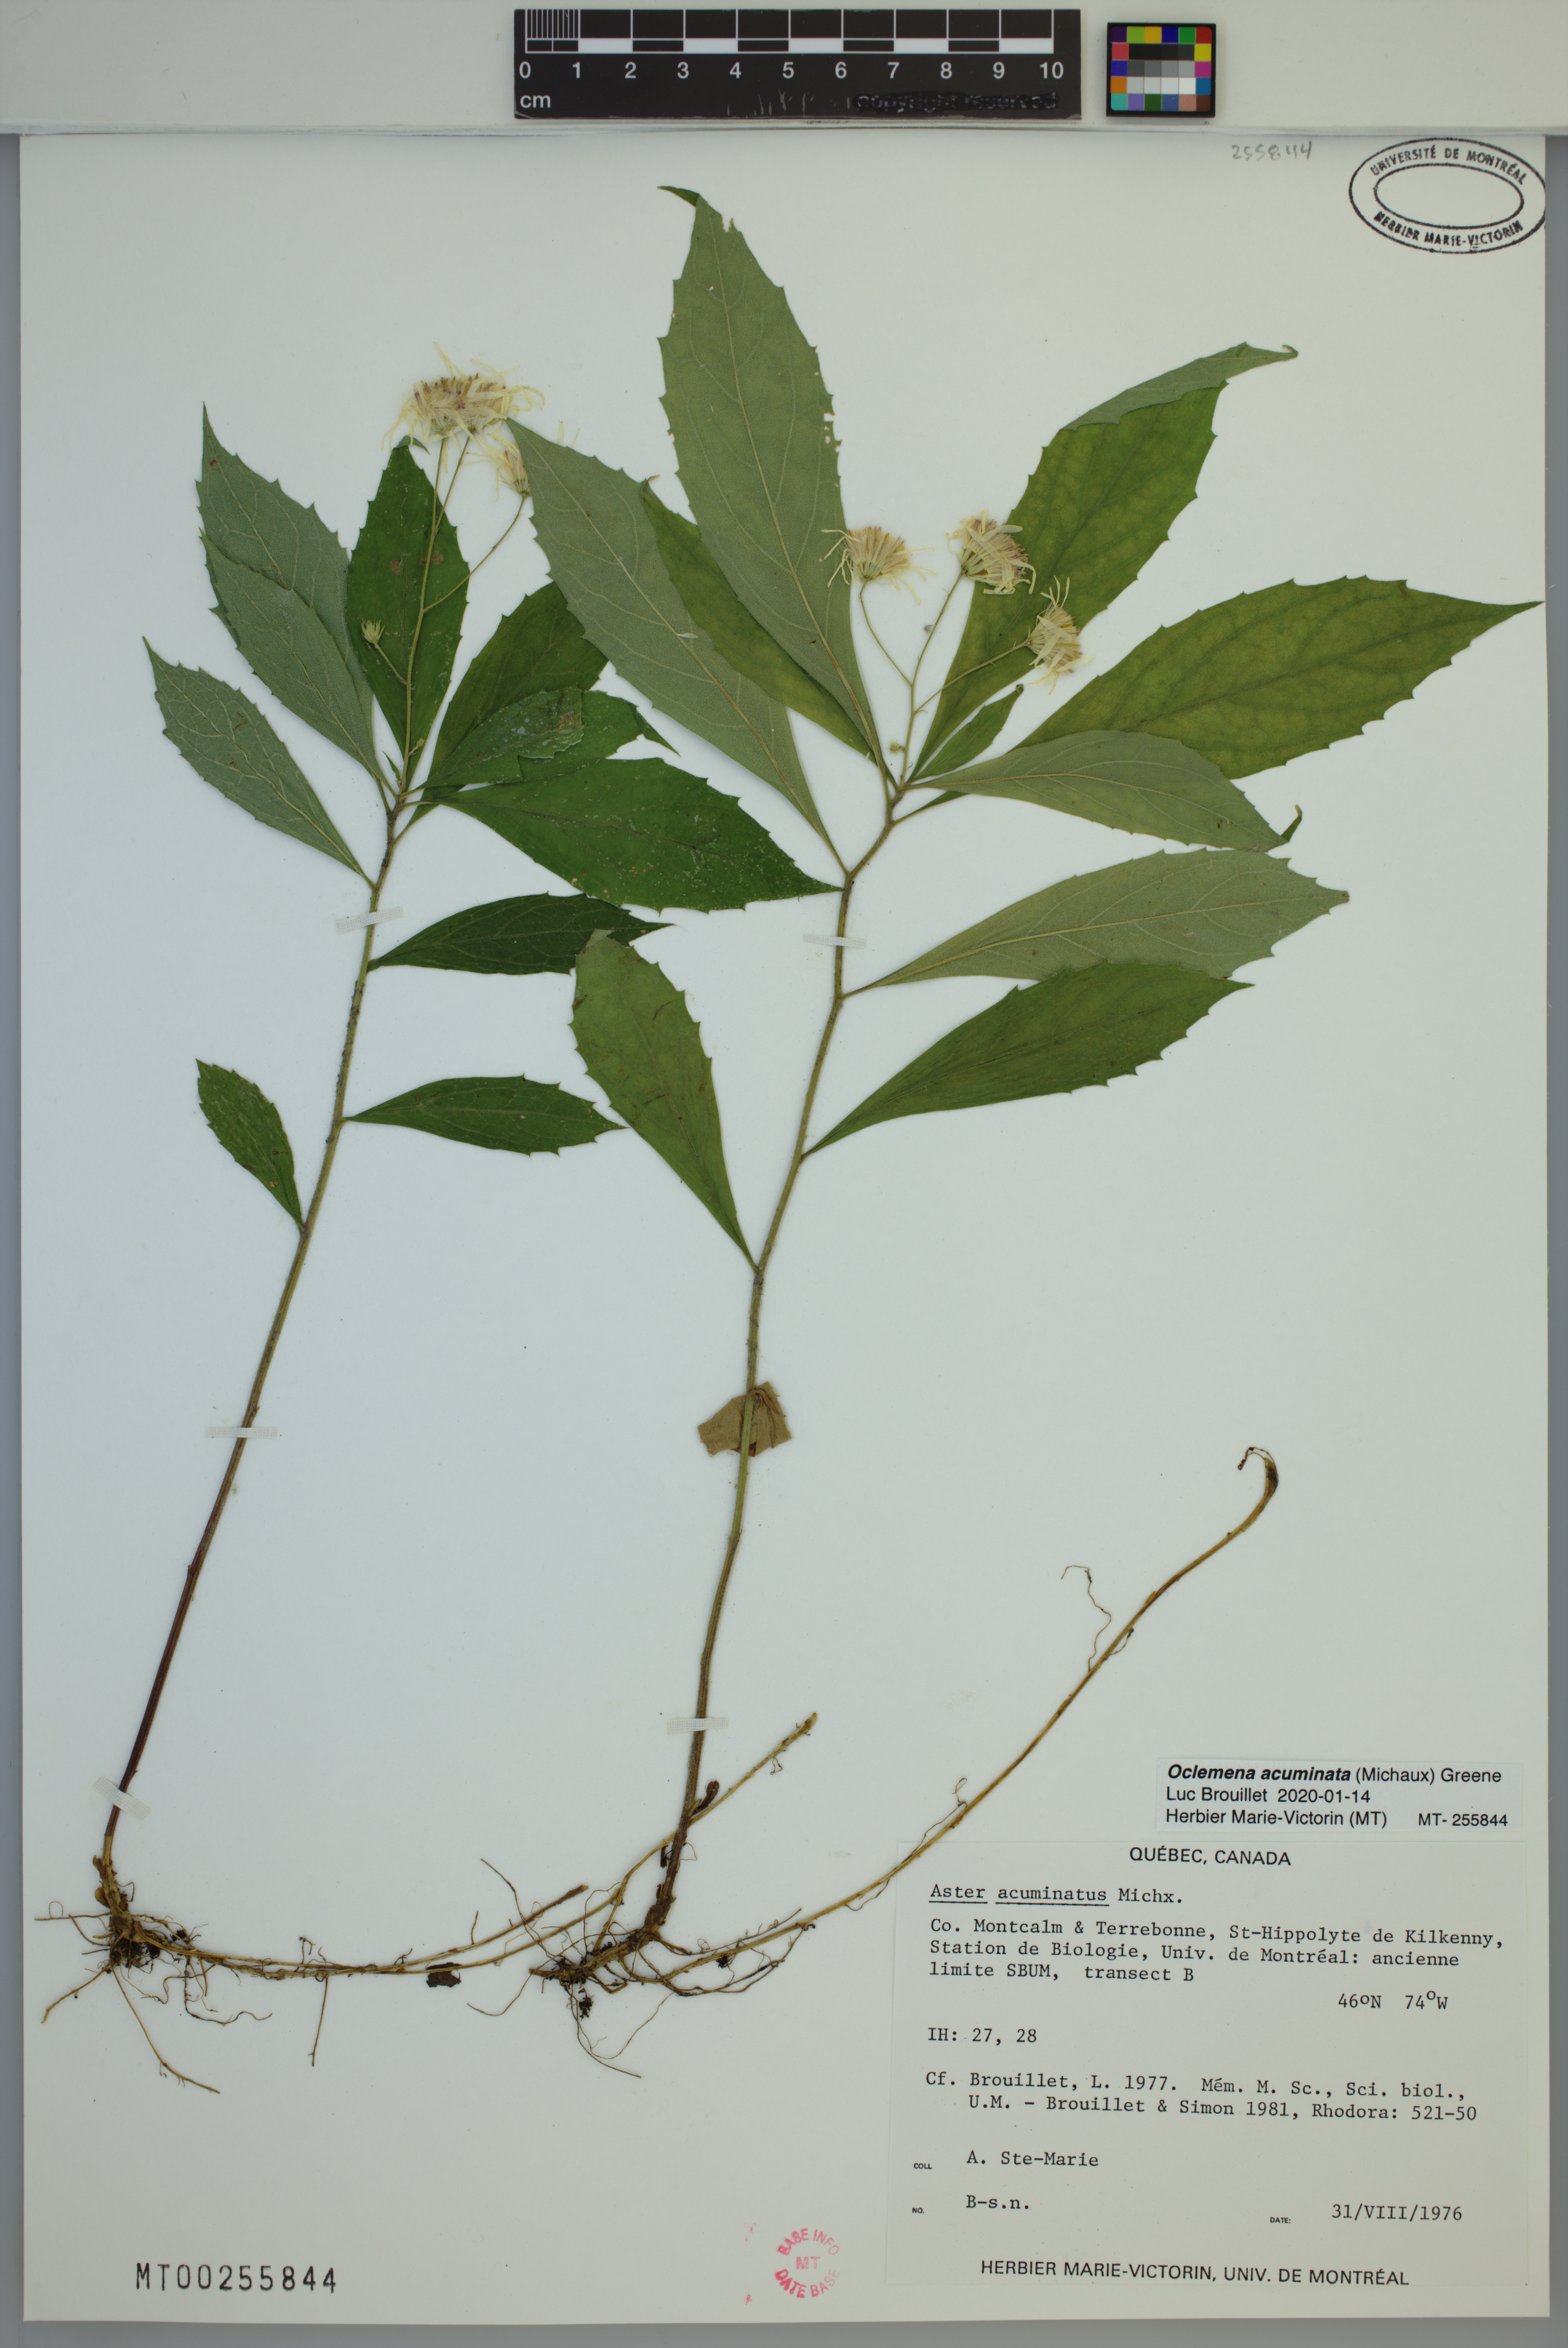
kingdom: Plantae
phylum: Tracheophyta
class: Magnoliopsida
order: Asterales
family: Asteraceae
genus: Oclemena
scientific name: Oclemena acuminata
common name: Mountain aster
